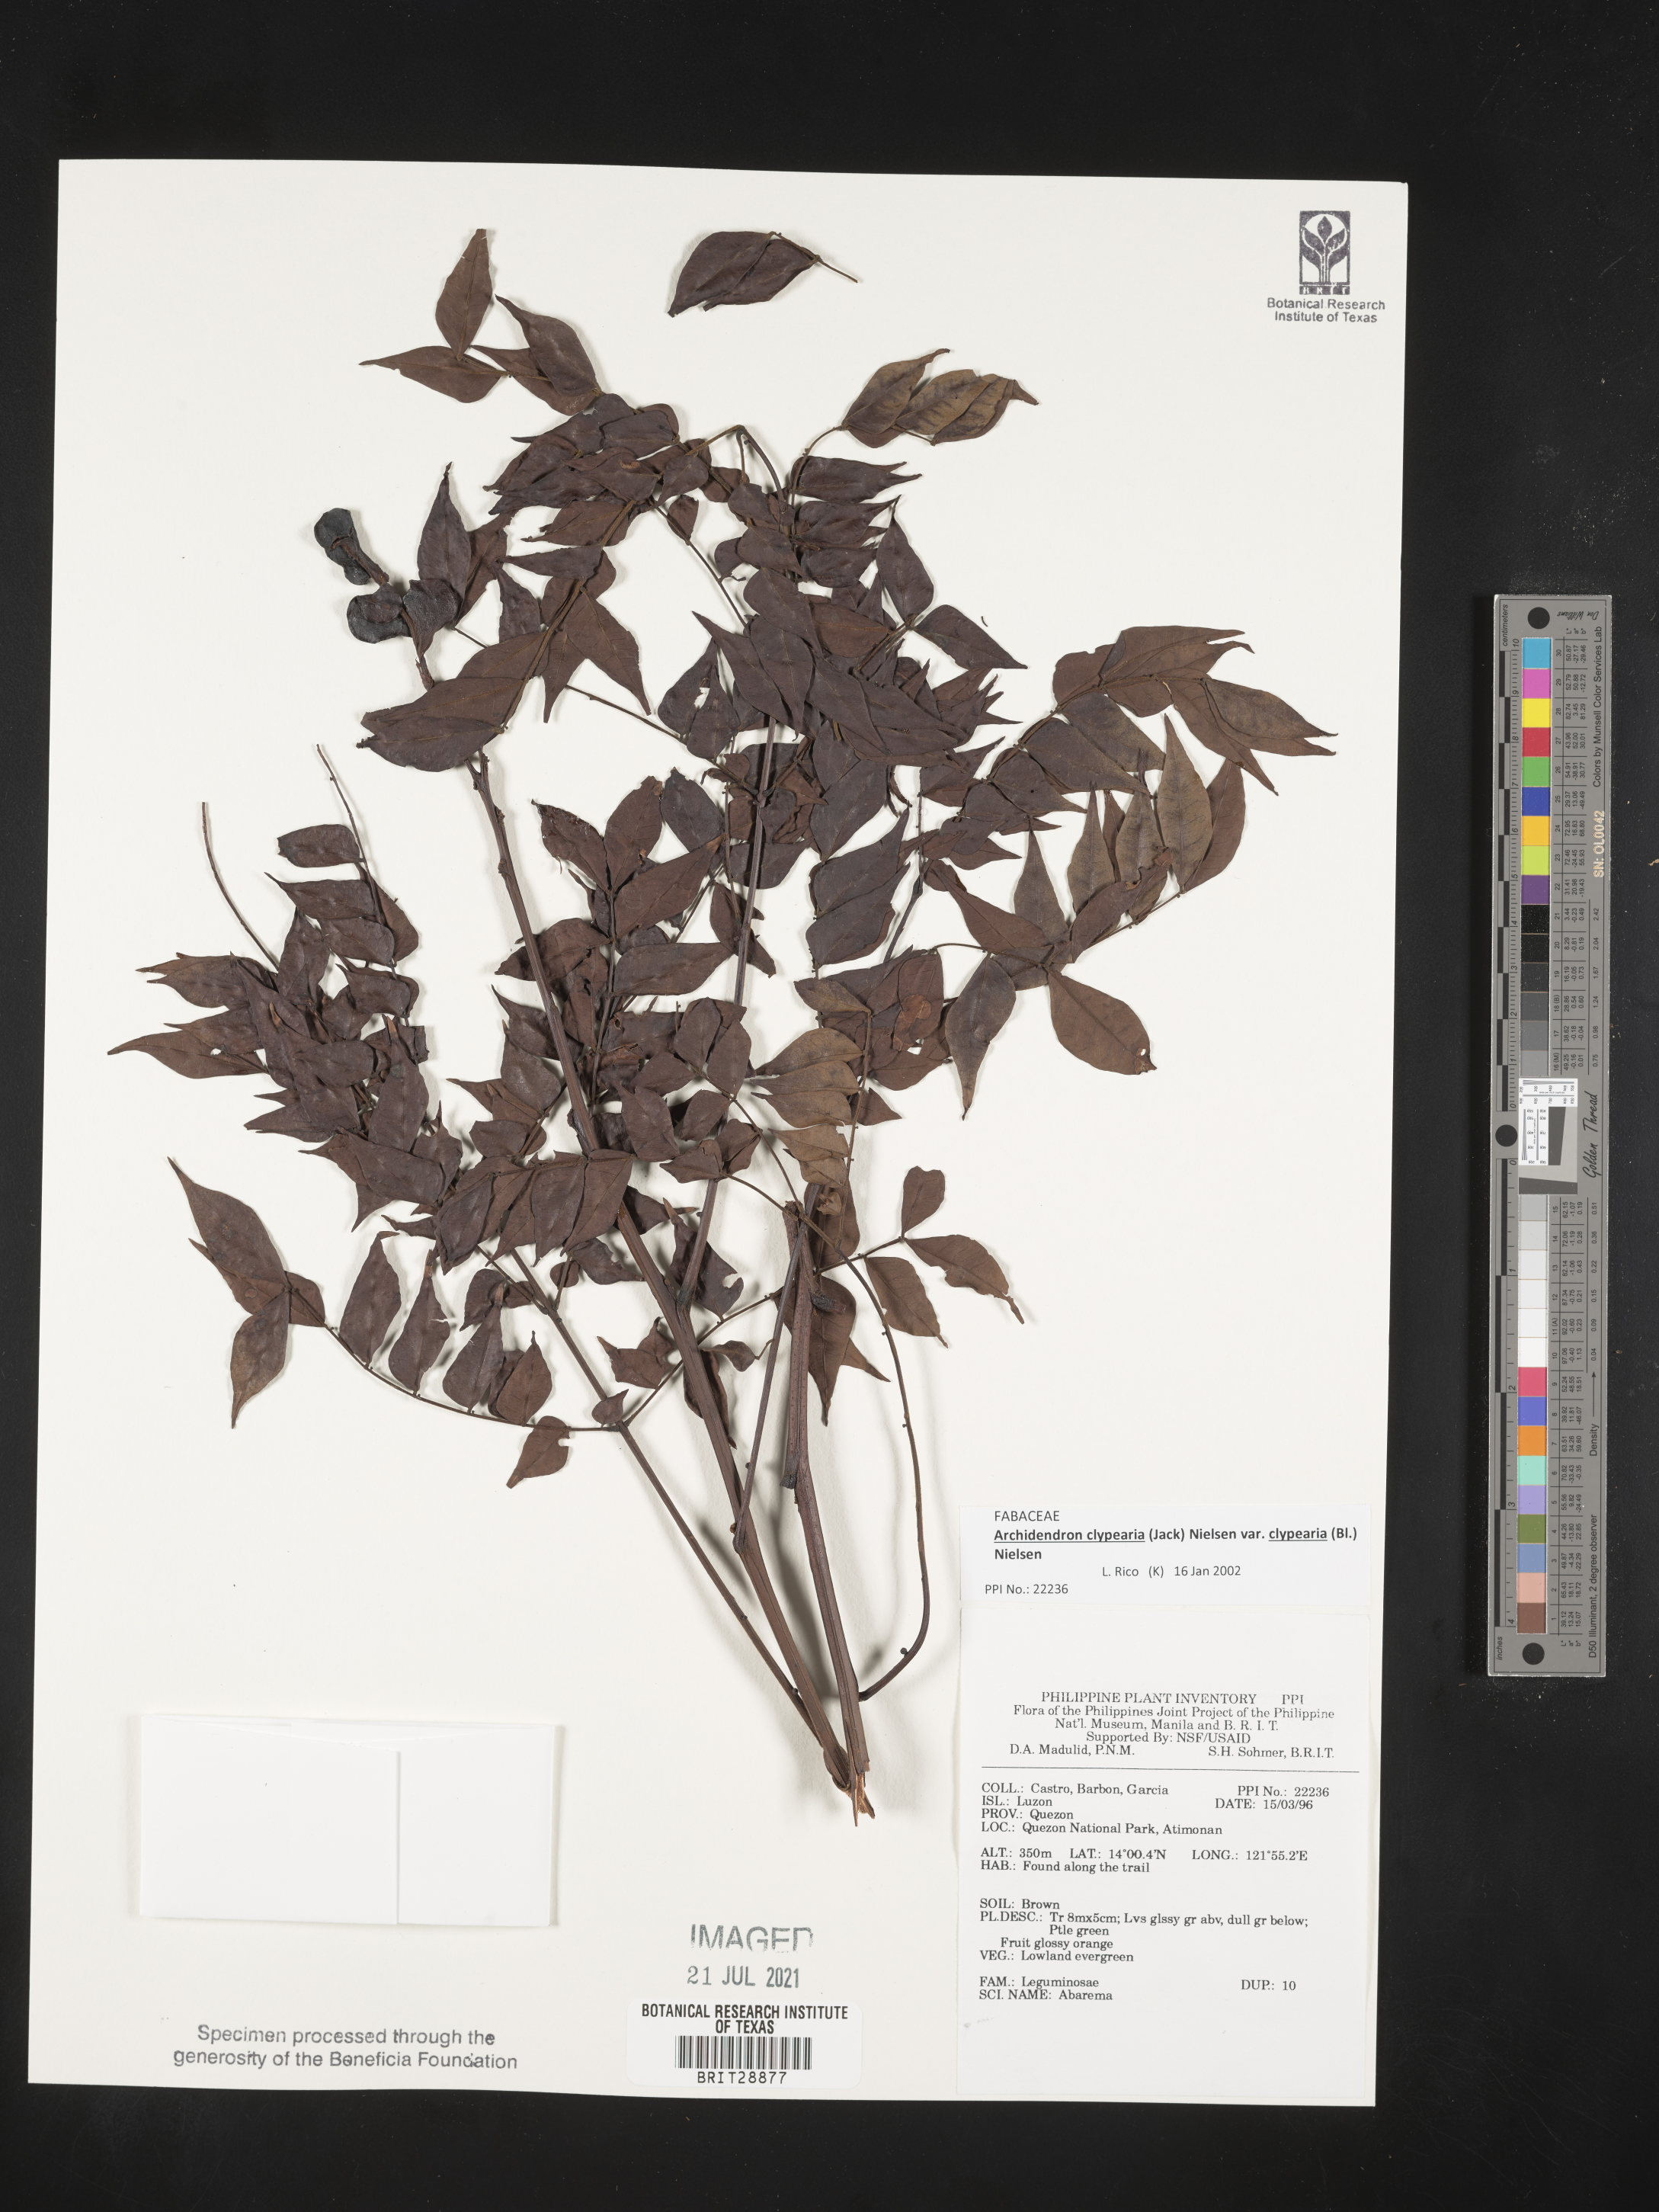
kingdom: Plantae
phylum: Tracheophyta
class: Magnoliopsida
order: Fabales
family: Fabaceae
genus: Abarema
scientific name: Abarema
